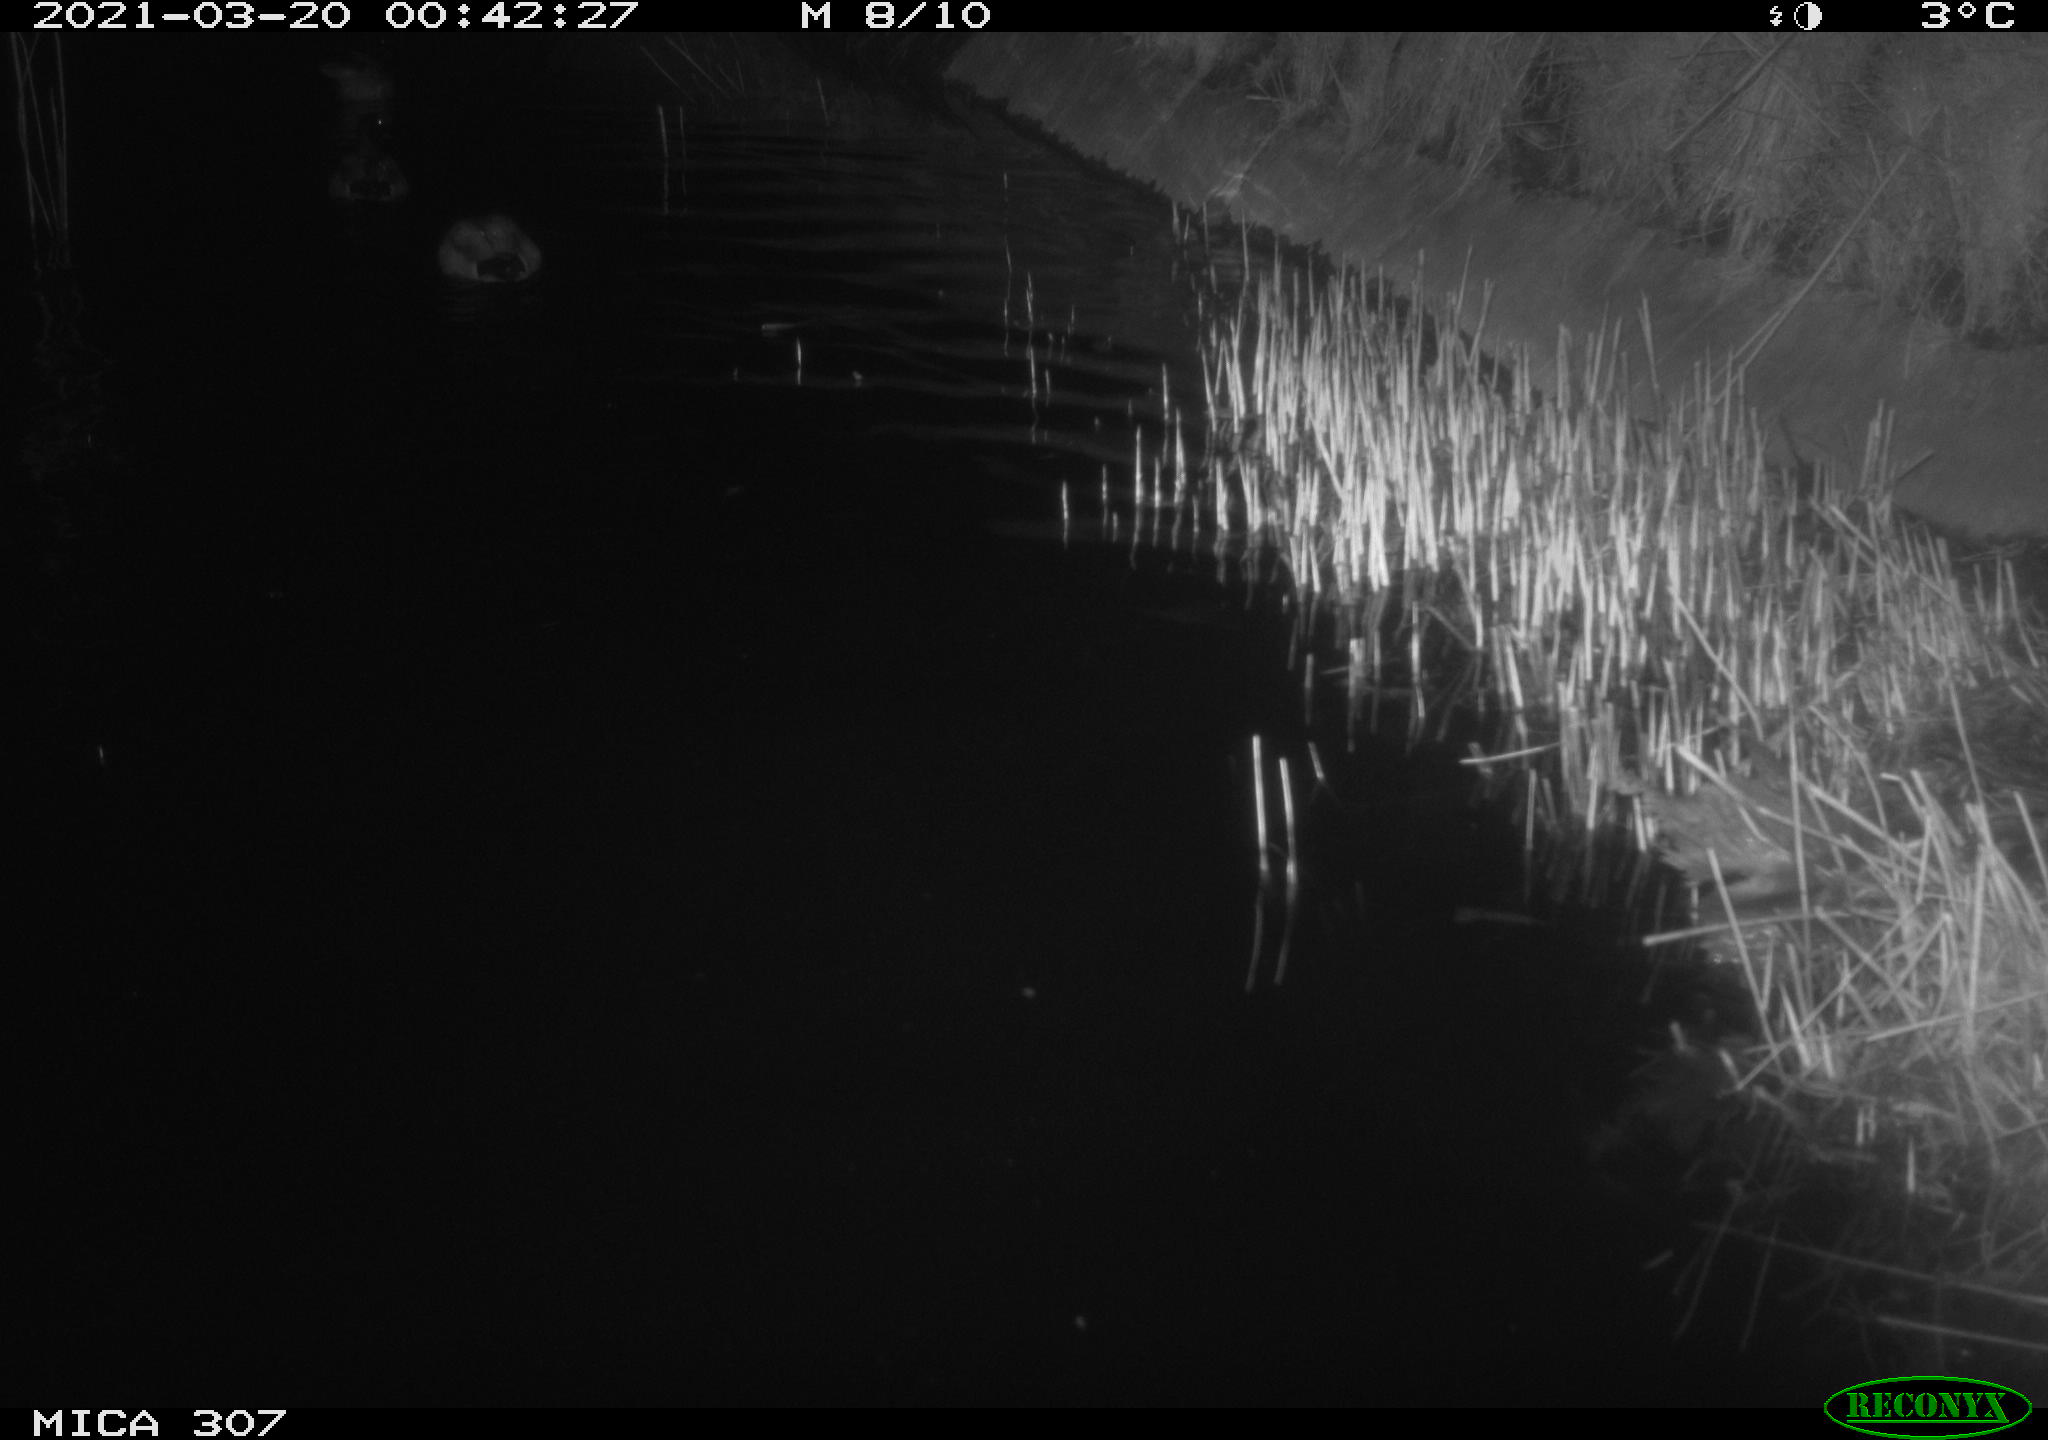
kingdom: Animalia
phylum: Chordata
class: Aves
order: Anseriformes
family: Anatidae
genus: Anas
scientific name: Anas platyrhynchos
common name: Mallard
